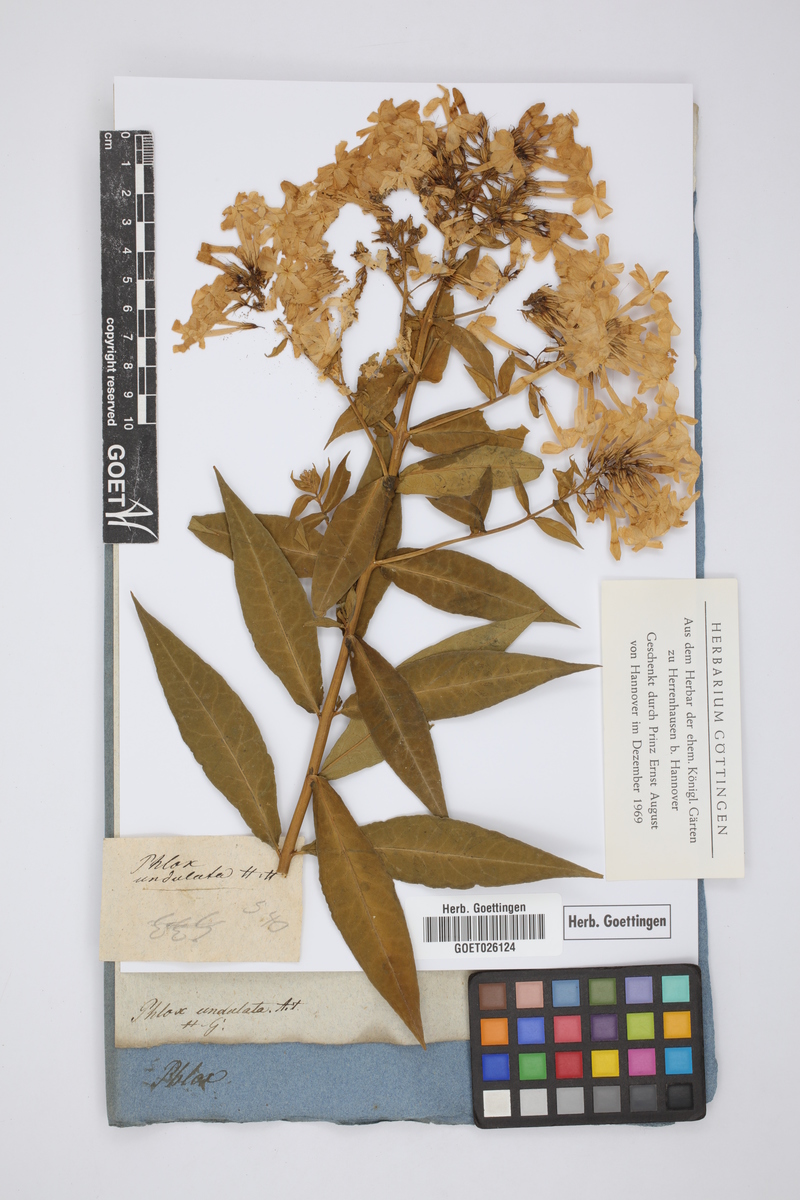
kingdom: Plantae
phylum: Tracheophyta
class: Magnoliopsida
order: Ericales
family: Polemoniaceae
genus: Phlox
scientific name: Phlox paniculata
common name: Fall phlox
